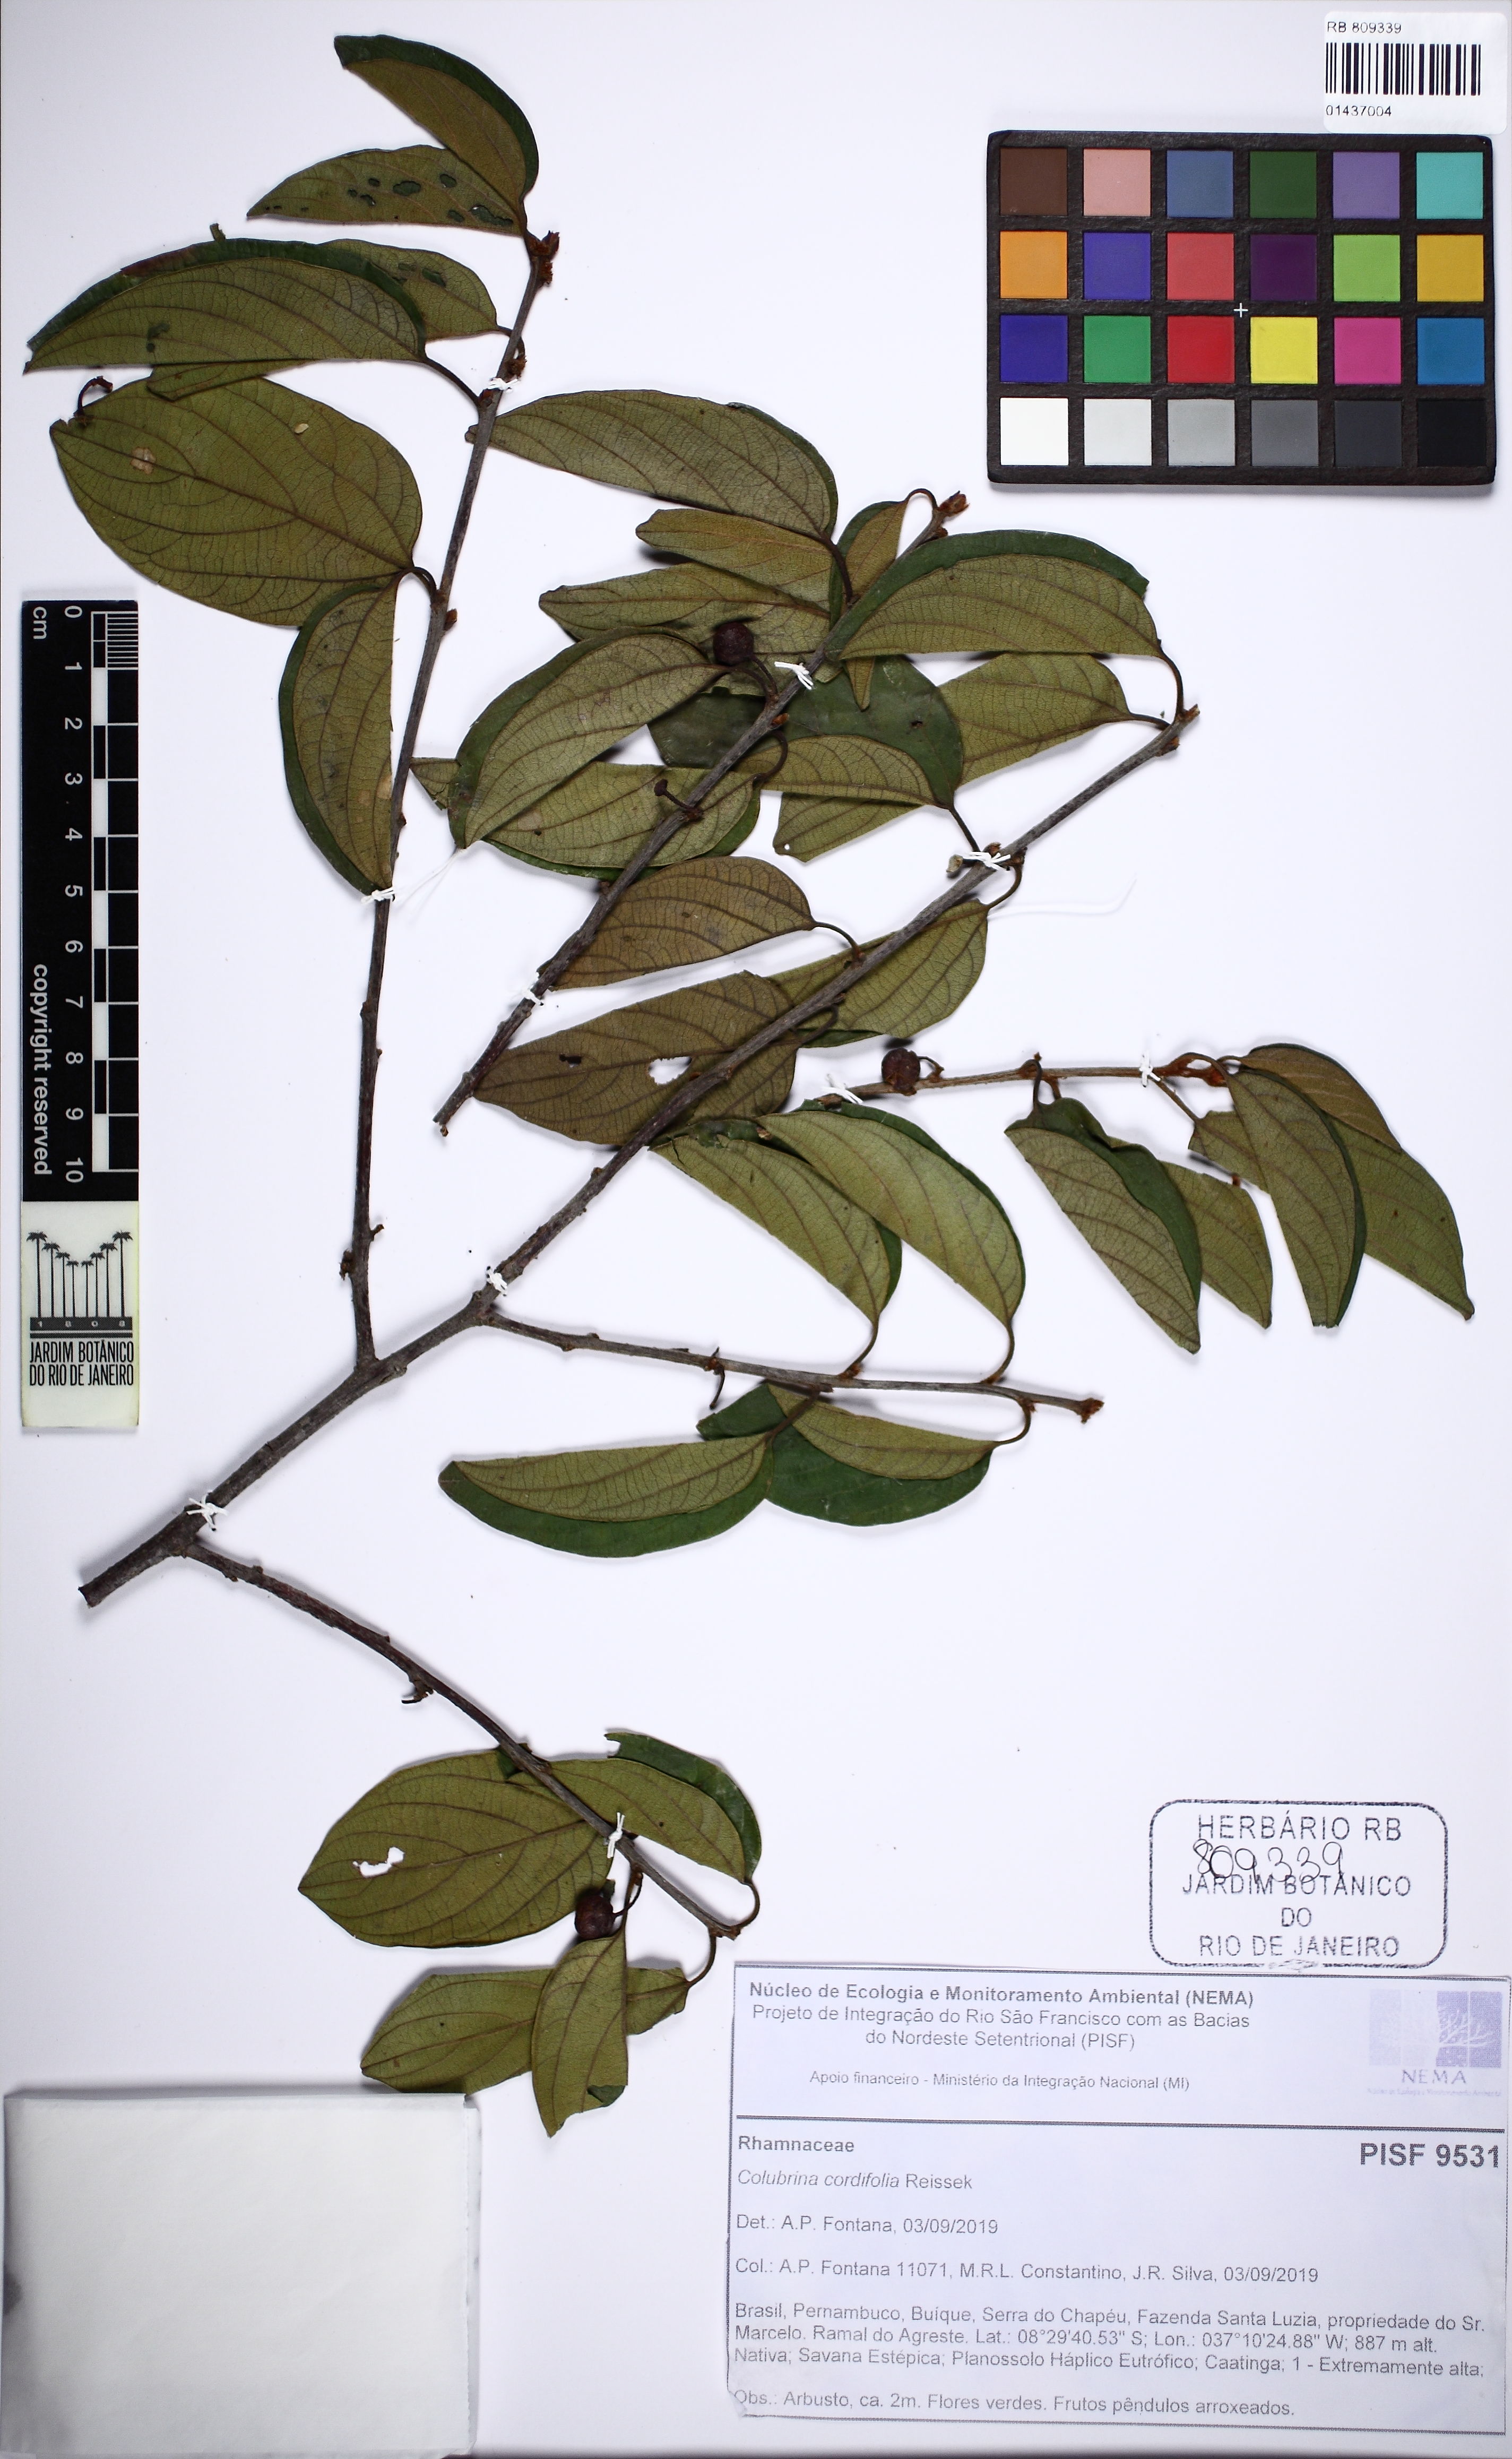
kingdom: Plantae
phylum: Tracheophyta
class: Magnoliopsida
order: Rosales
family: Rhamnaceae
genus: Colubrina
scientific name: Colubrina cordifolia
